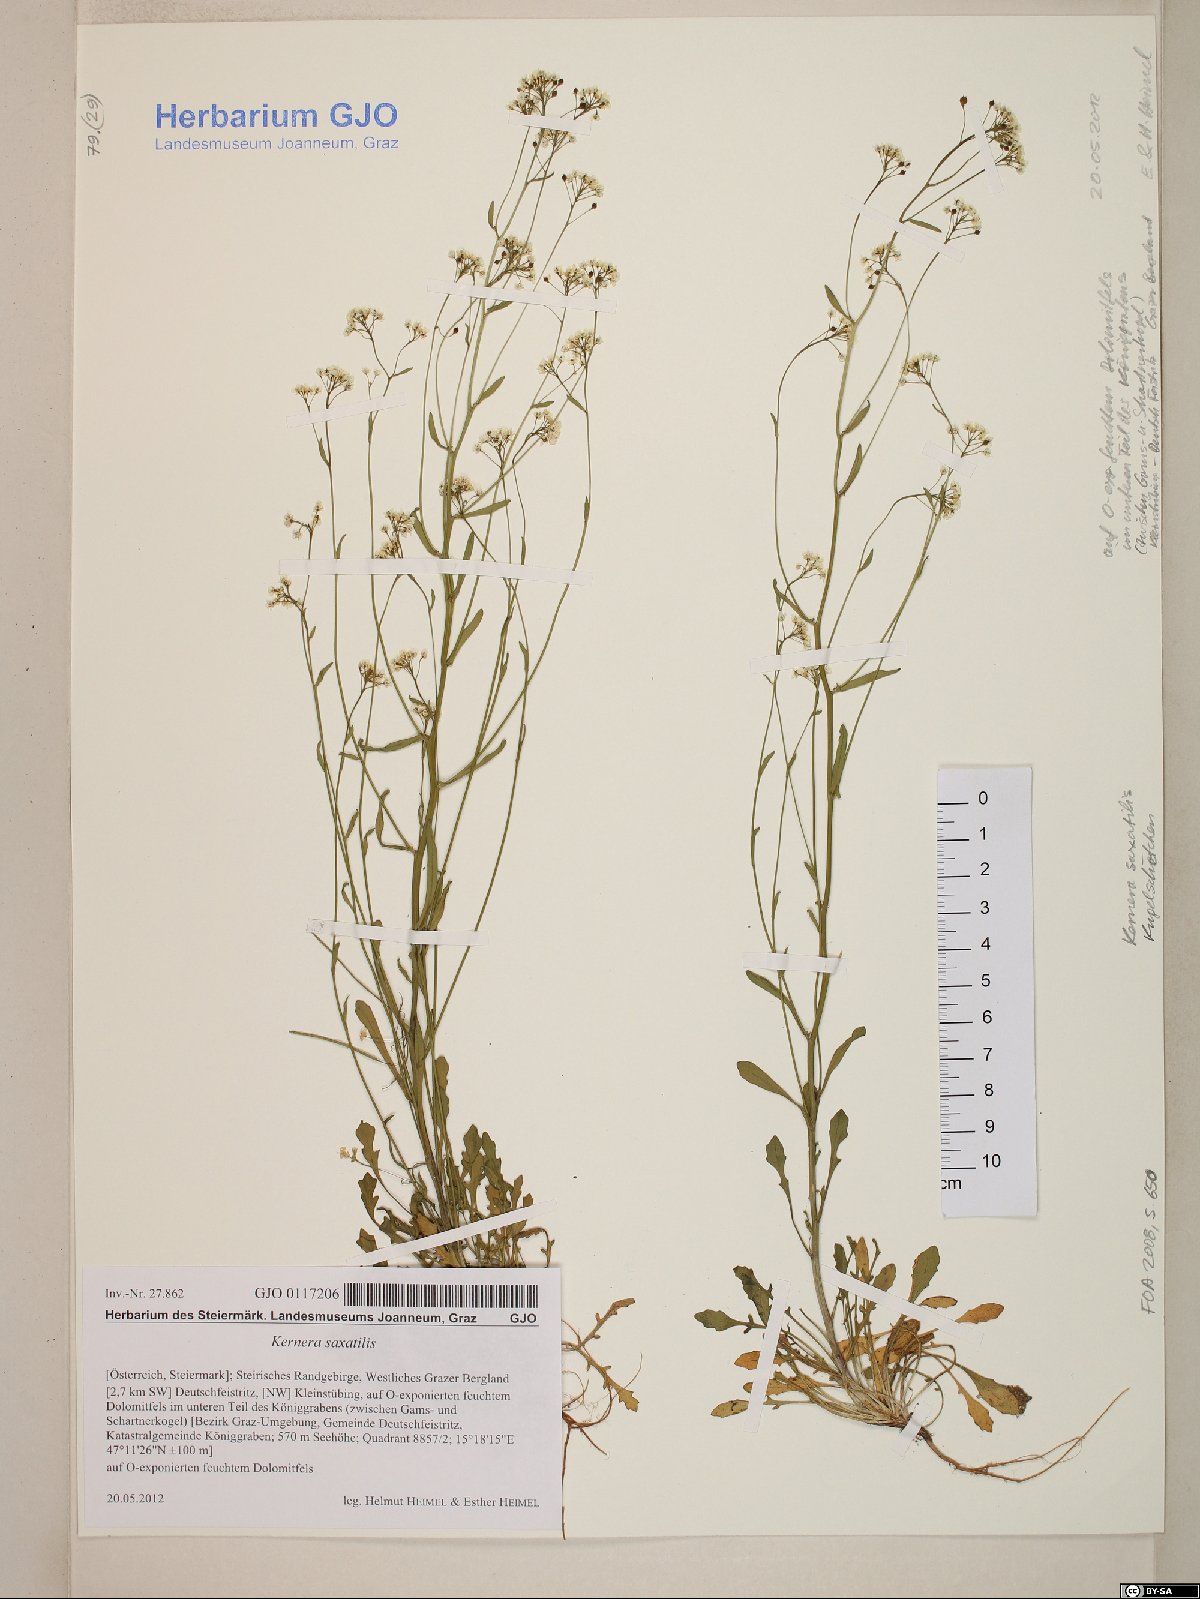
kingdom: Plantae
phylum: Tracheophyta
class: Magnoliopsida
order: Brassicales
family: Brassicaceae
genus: Kernera
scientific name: Kernera saxatilis
